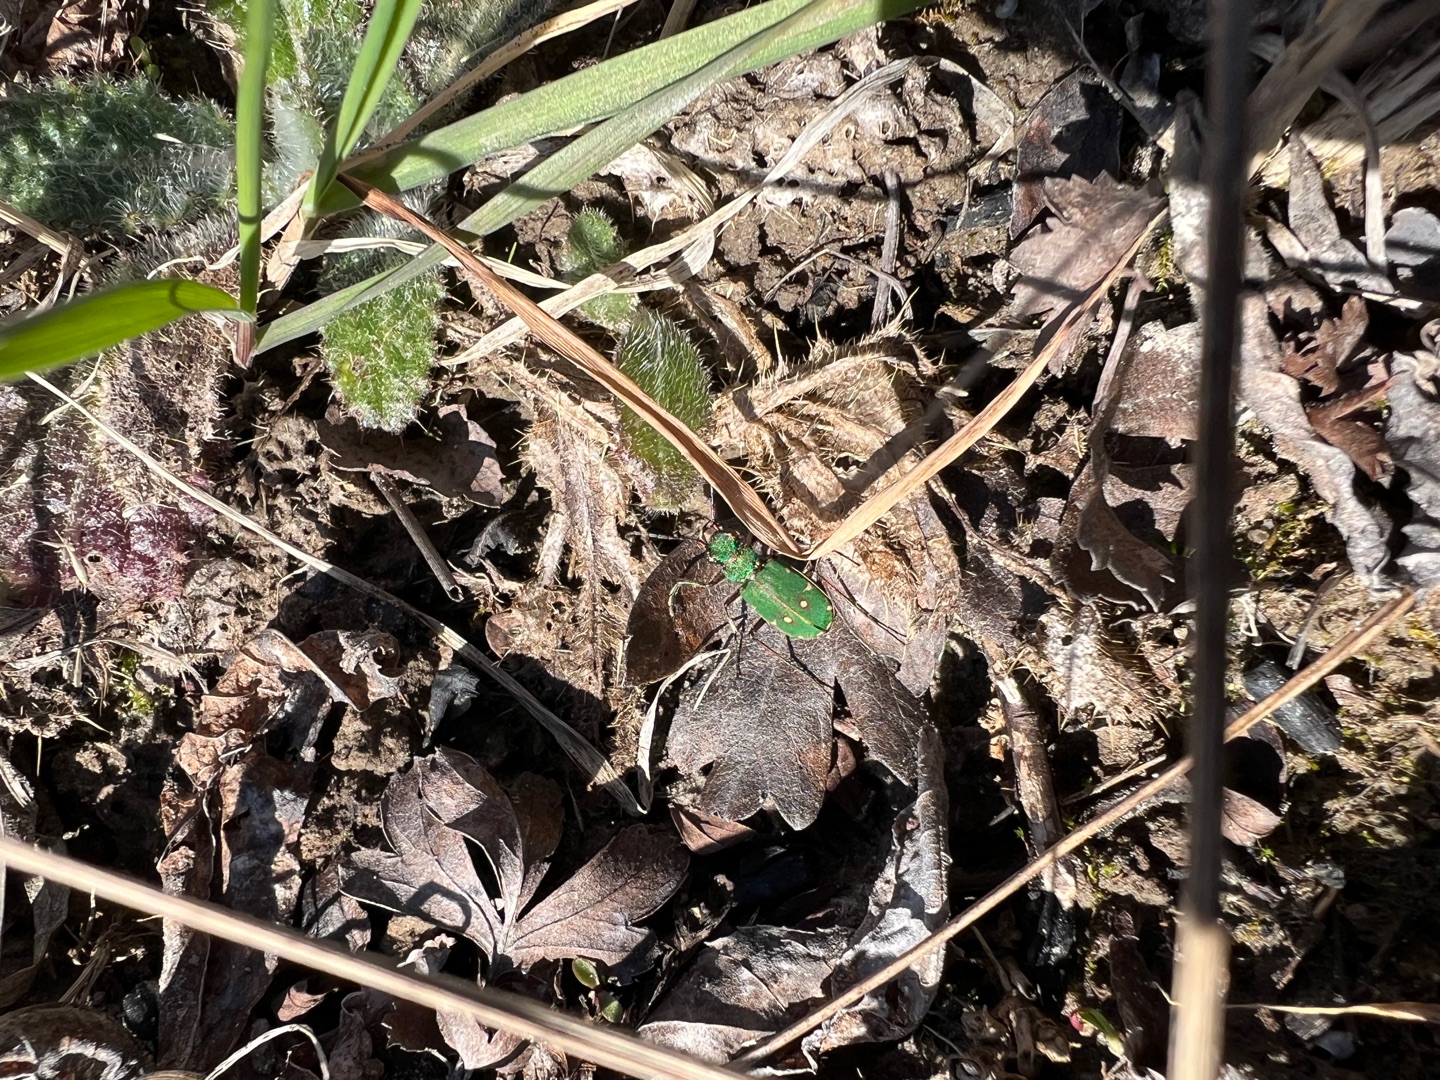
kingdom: Animalia
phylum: Arthropoda
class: Insecta
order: Coleoptera
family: Carabidae
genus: Cicindela
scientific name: Cicindela campestris
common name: Grøn sandspringer
